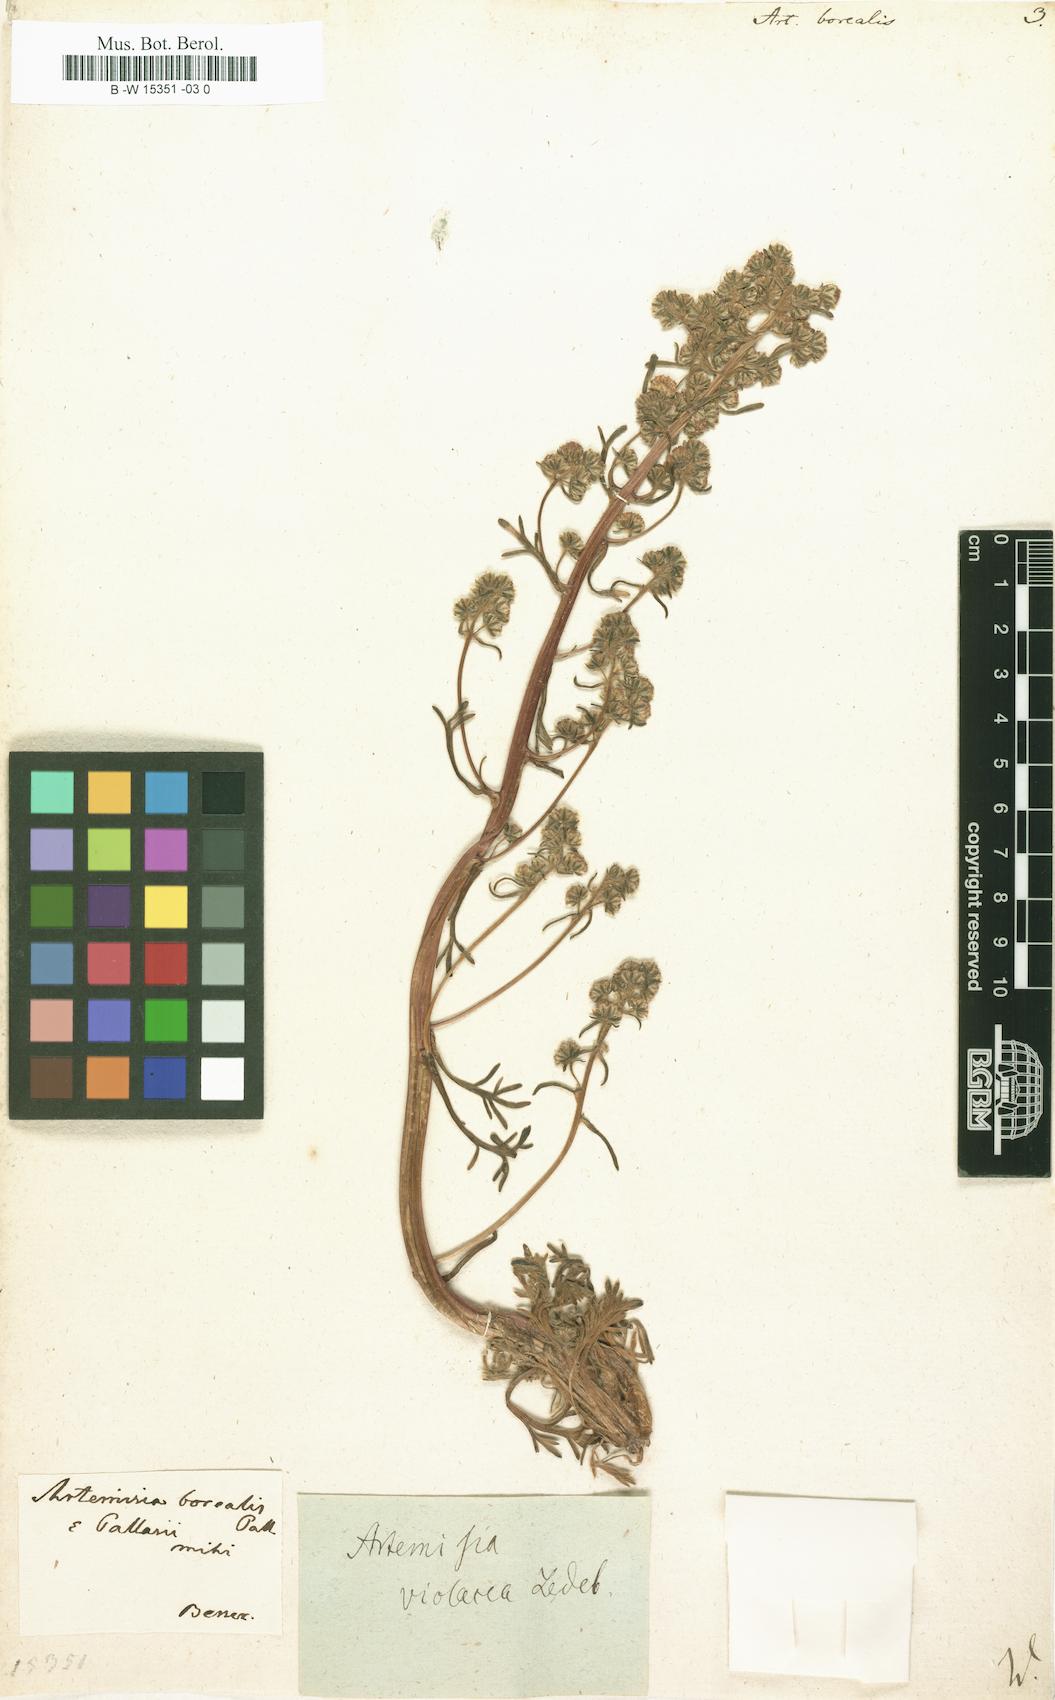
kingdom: Plantae
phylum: Tracheophyta
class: Magnoliopsida
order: Asterales
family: Asteraceae
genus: Artemisia
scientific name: Artemisia borealis
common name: Boreal sage
